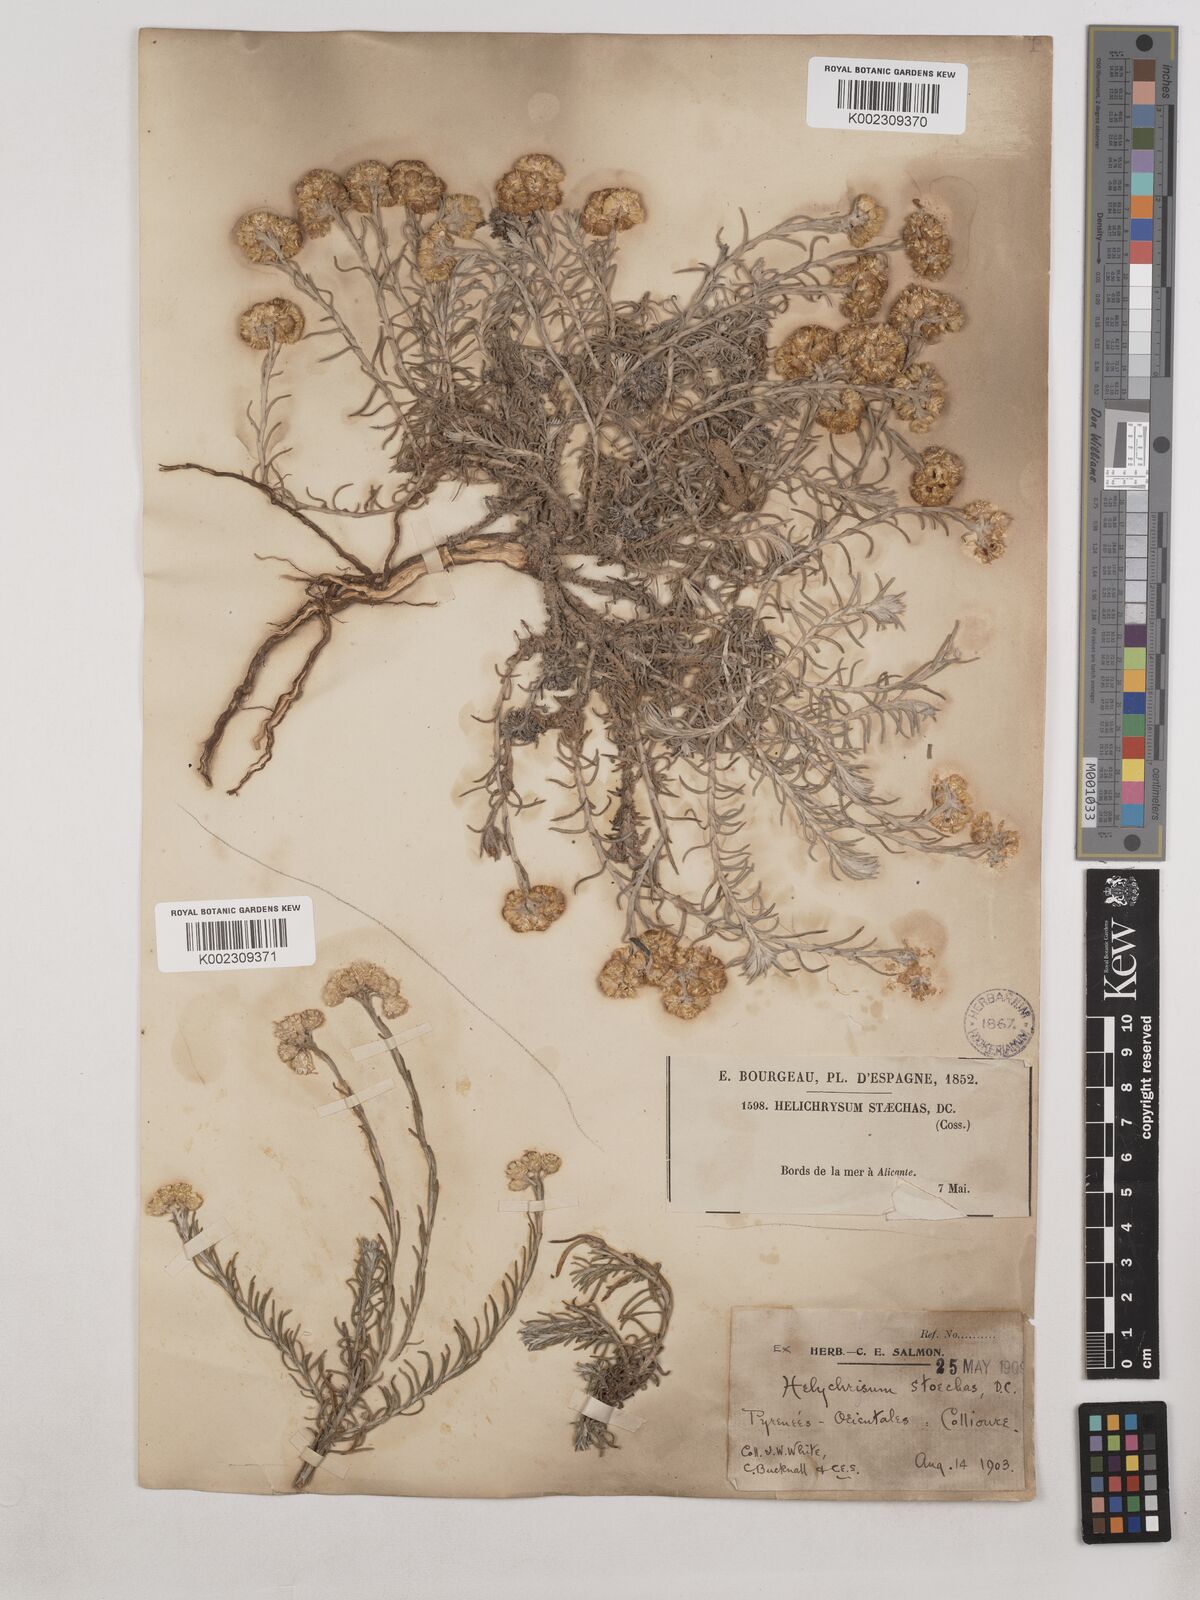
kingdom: Plantae
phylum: Tracheophyta
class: Magnoliopsida
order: Asterales
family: Asteraceae
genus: Helichrysum
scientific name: Helichrysum
